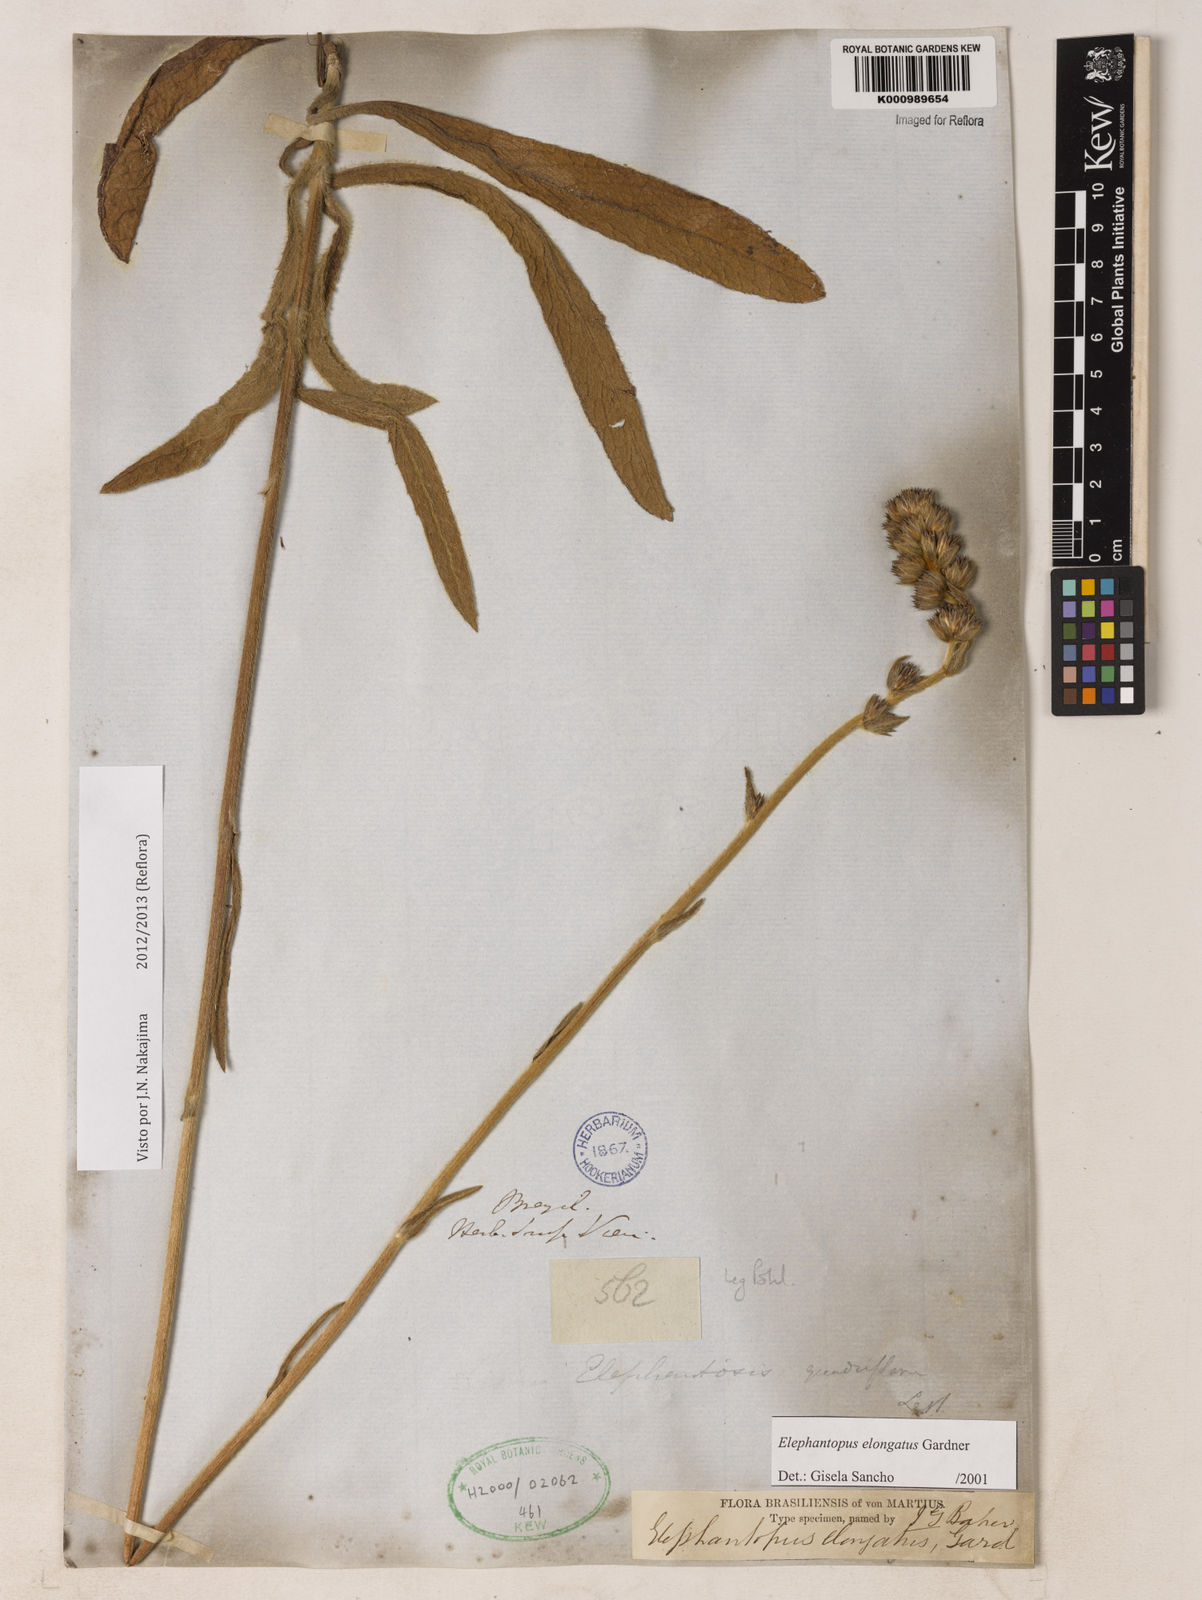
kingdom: Plantae
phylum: Tracheophyta
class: Magnoliopsida
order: Asterales
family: Asteraceae
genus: Elephantopus
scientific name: Elephantopus elongatus
